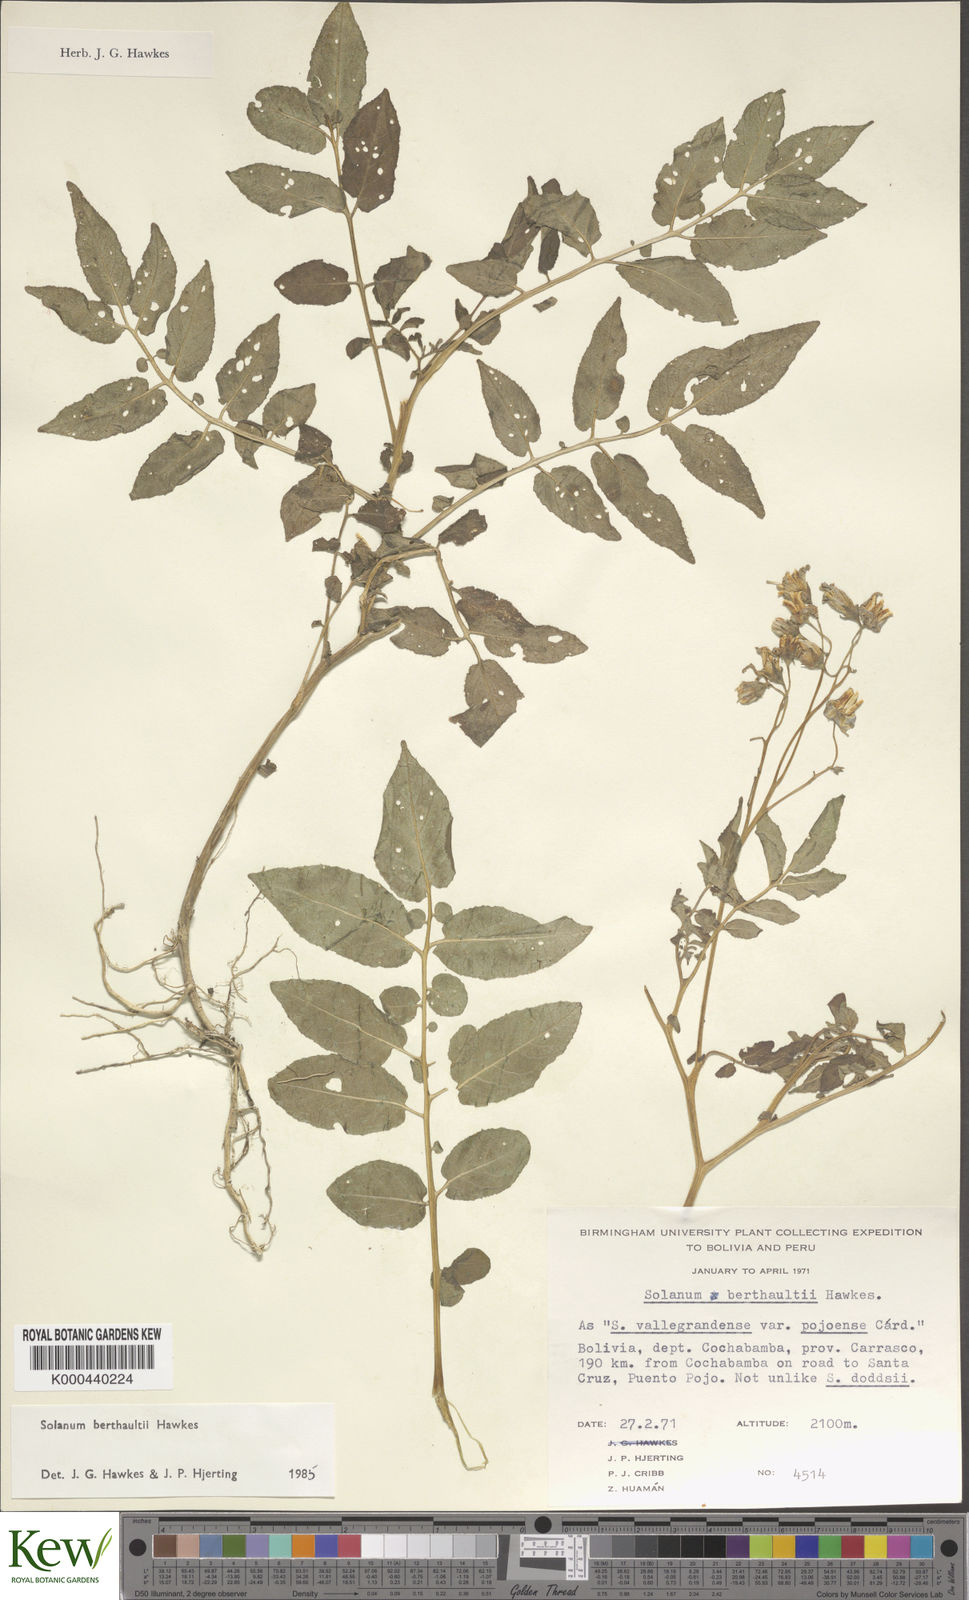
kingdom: Plantae
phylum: Tracheophyta
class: Magnoliopsida
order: Solanales
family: Solanaceae
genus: Solanum
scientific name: Solanum berthaultii
